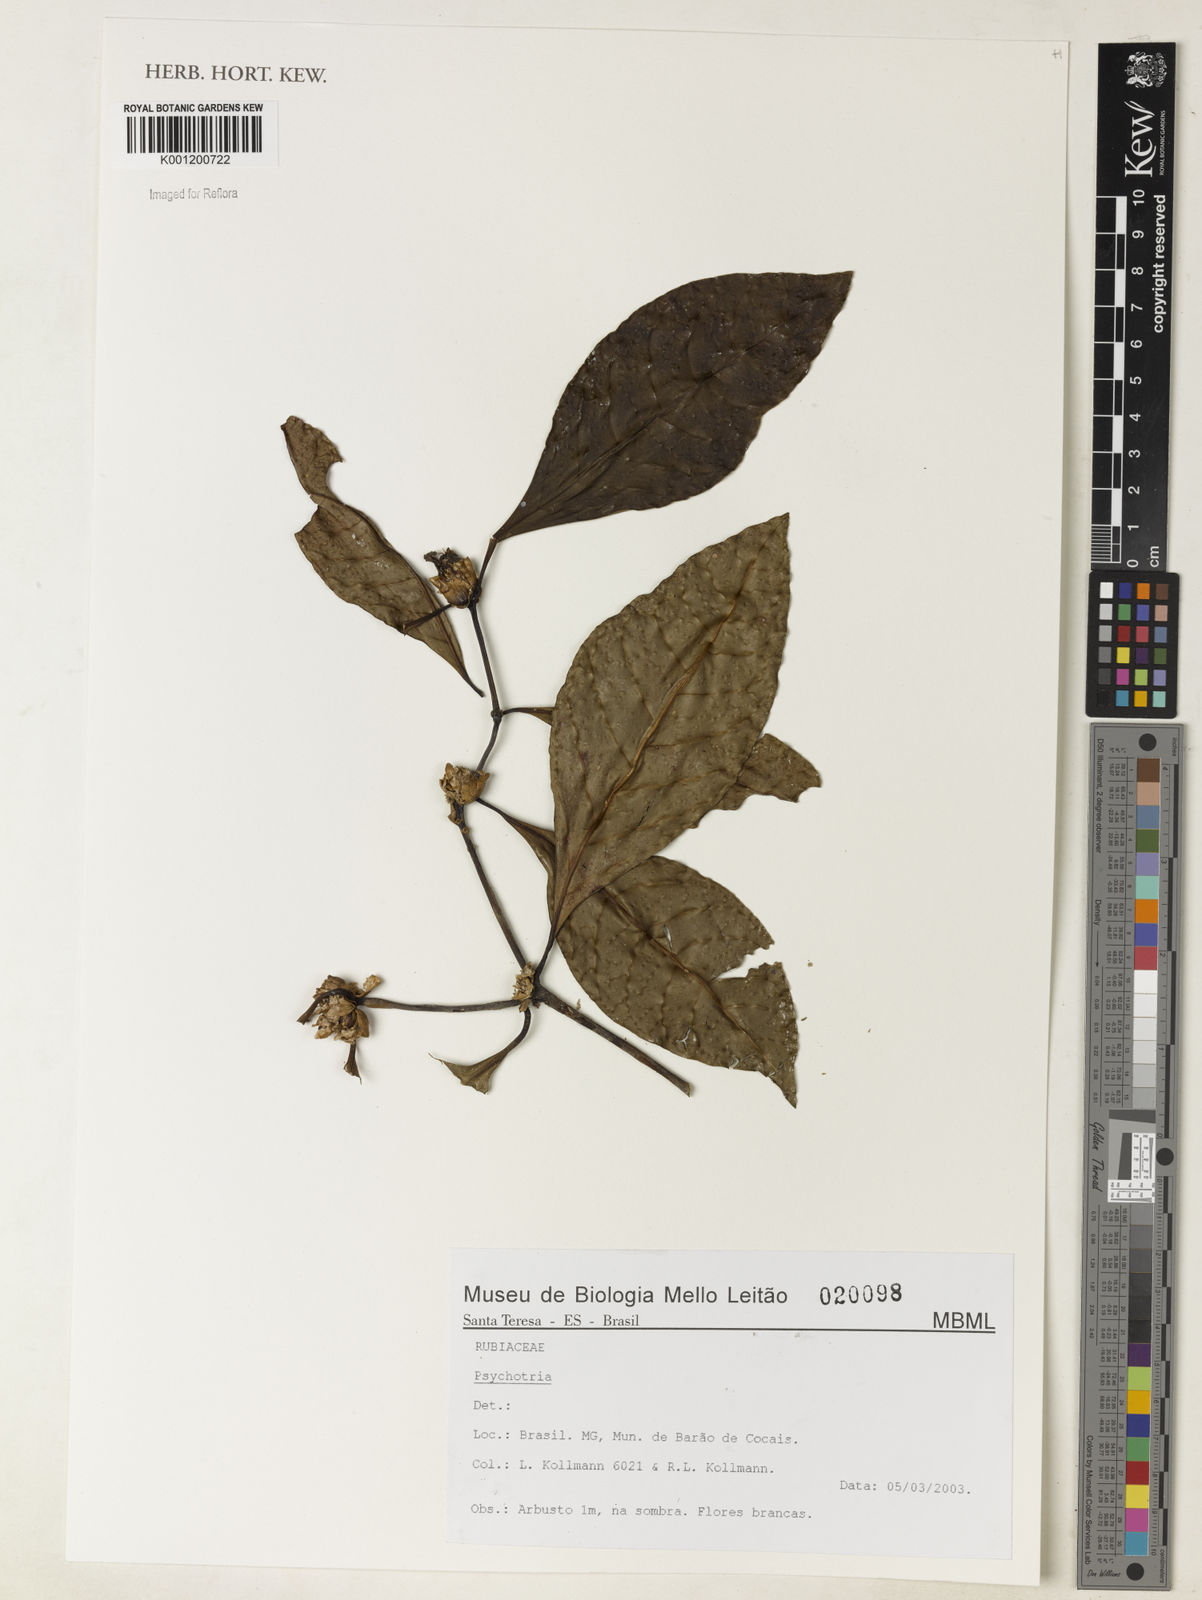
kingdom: Plantae
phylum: Tracheophyta
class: Magnoliopsida
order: Gentianales
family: Rubiaceae
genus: Psychotria
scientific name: Psychotria
